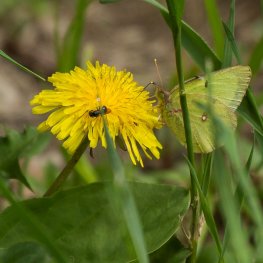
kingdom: Animalia
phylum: Arthropoda
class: Insecta
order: Lepidoptera
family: Pieridae
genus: Colias
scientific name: Colias philodice
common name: Clouded Sulphur
